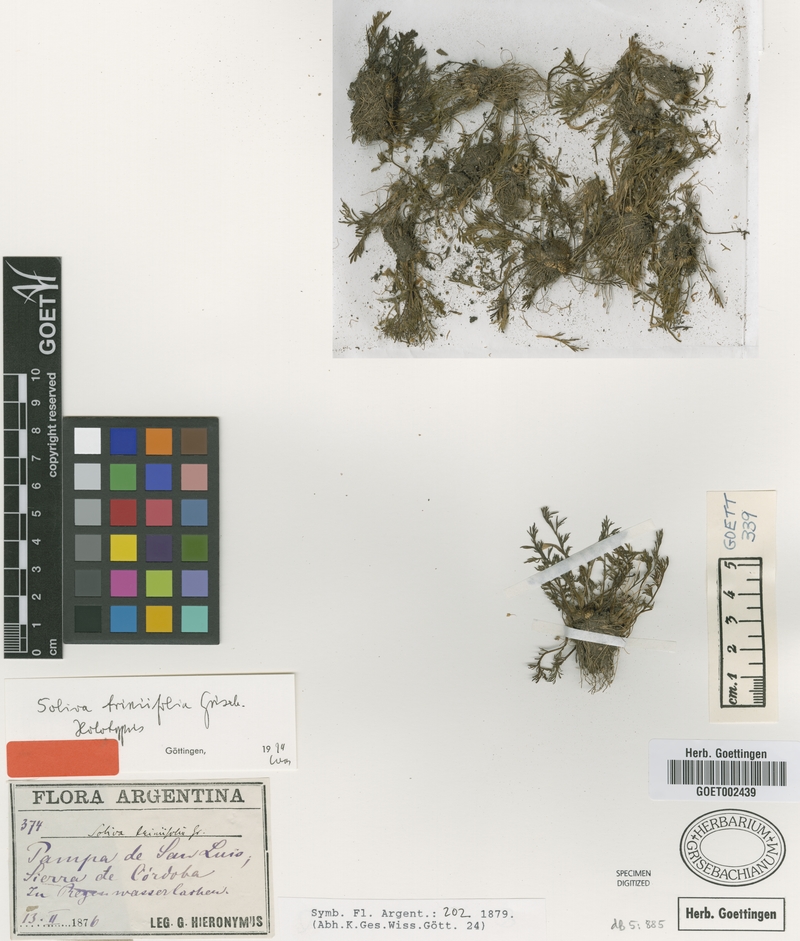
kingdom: Plantae
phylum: Tracheophyta
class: Magnoliopsida
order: Asterales
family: Asteraceae
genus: Soliva
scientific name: Soliva triniifolia
